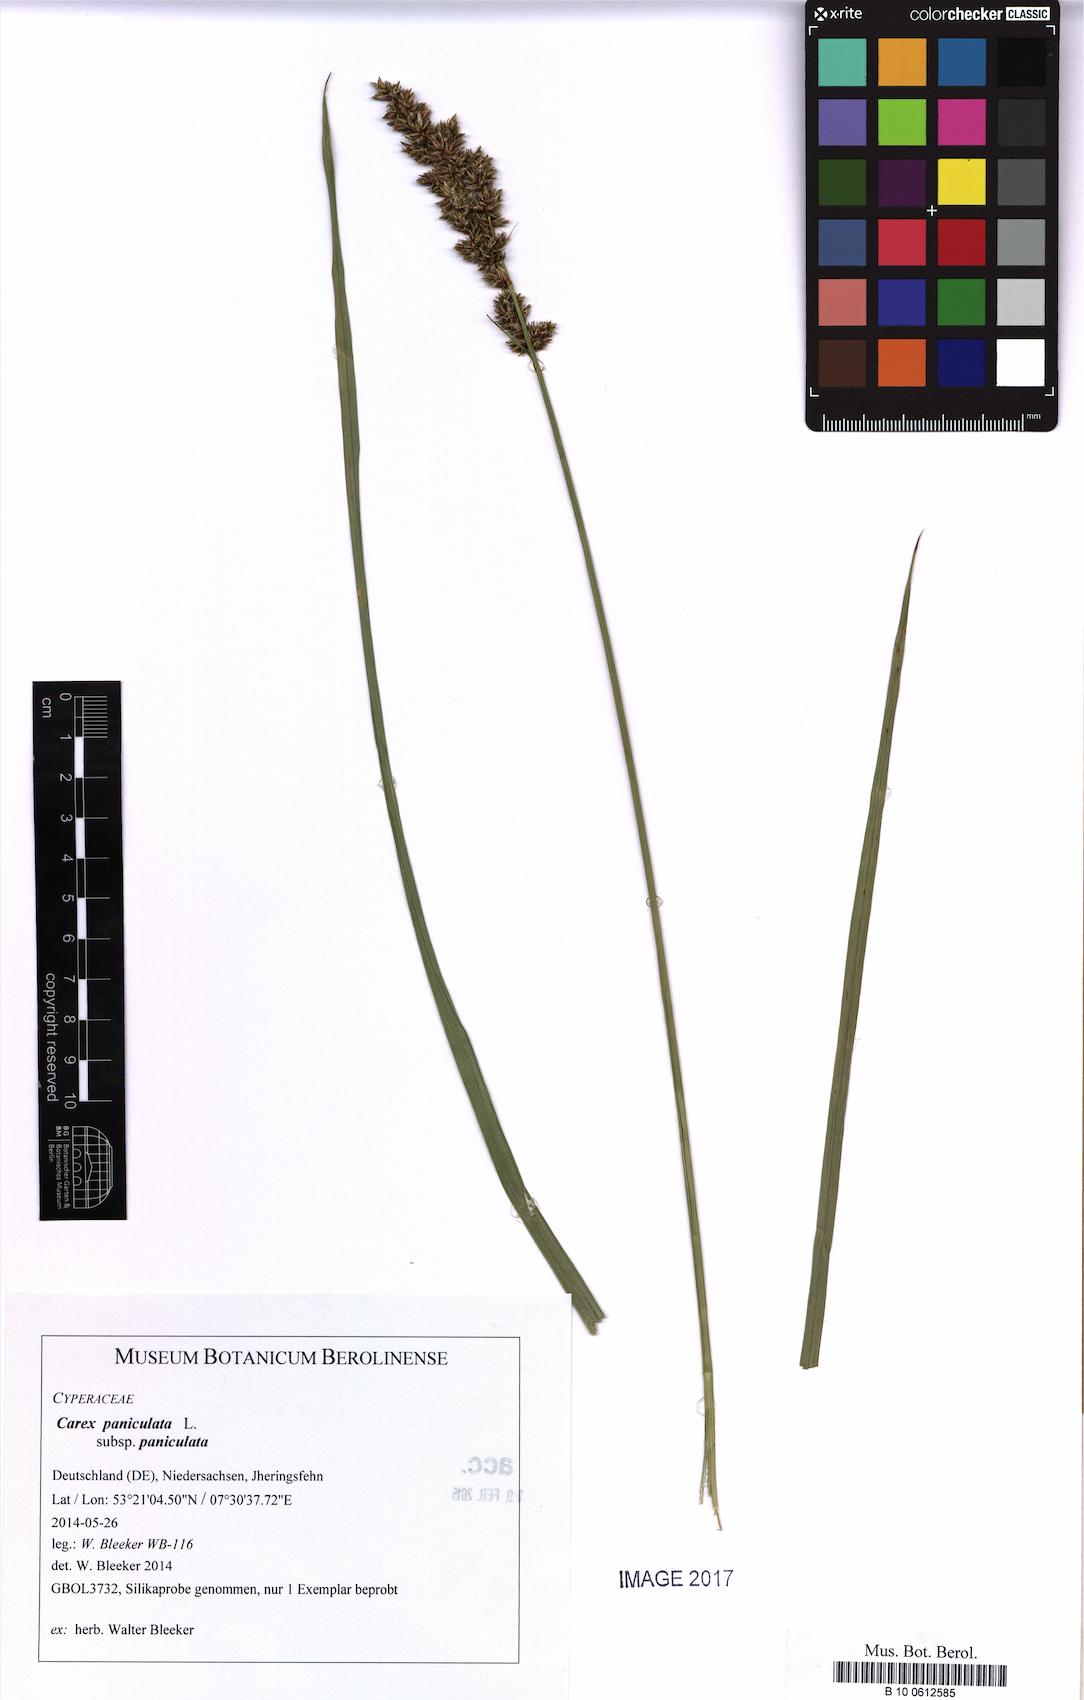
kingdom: Plantae
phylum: Tracheophyta
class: Liliopsida
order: Poales
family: Cyperaceae
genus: Carex
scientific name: Carex paniculata
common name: Greater tussock-sedge
